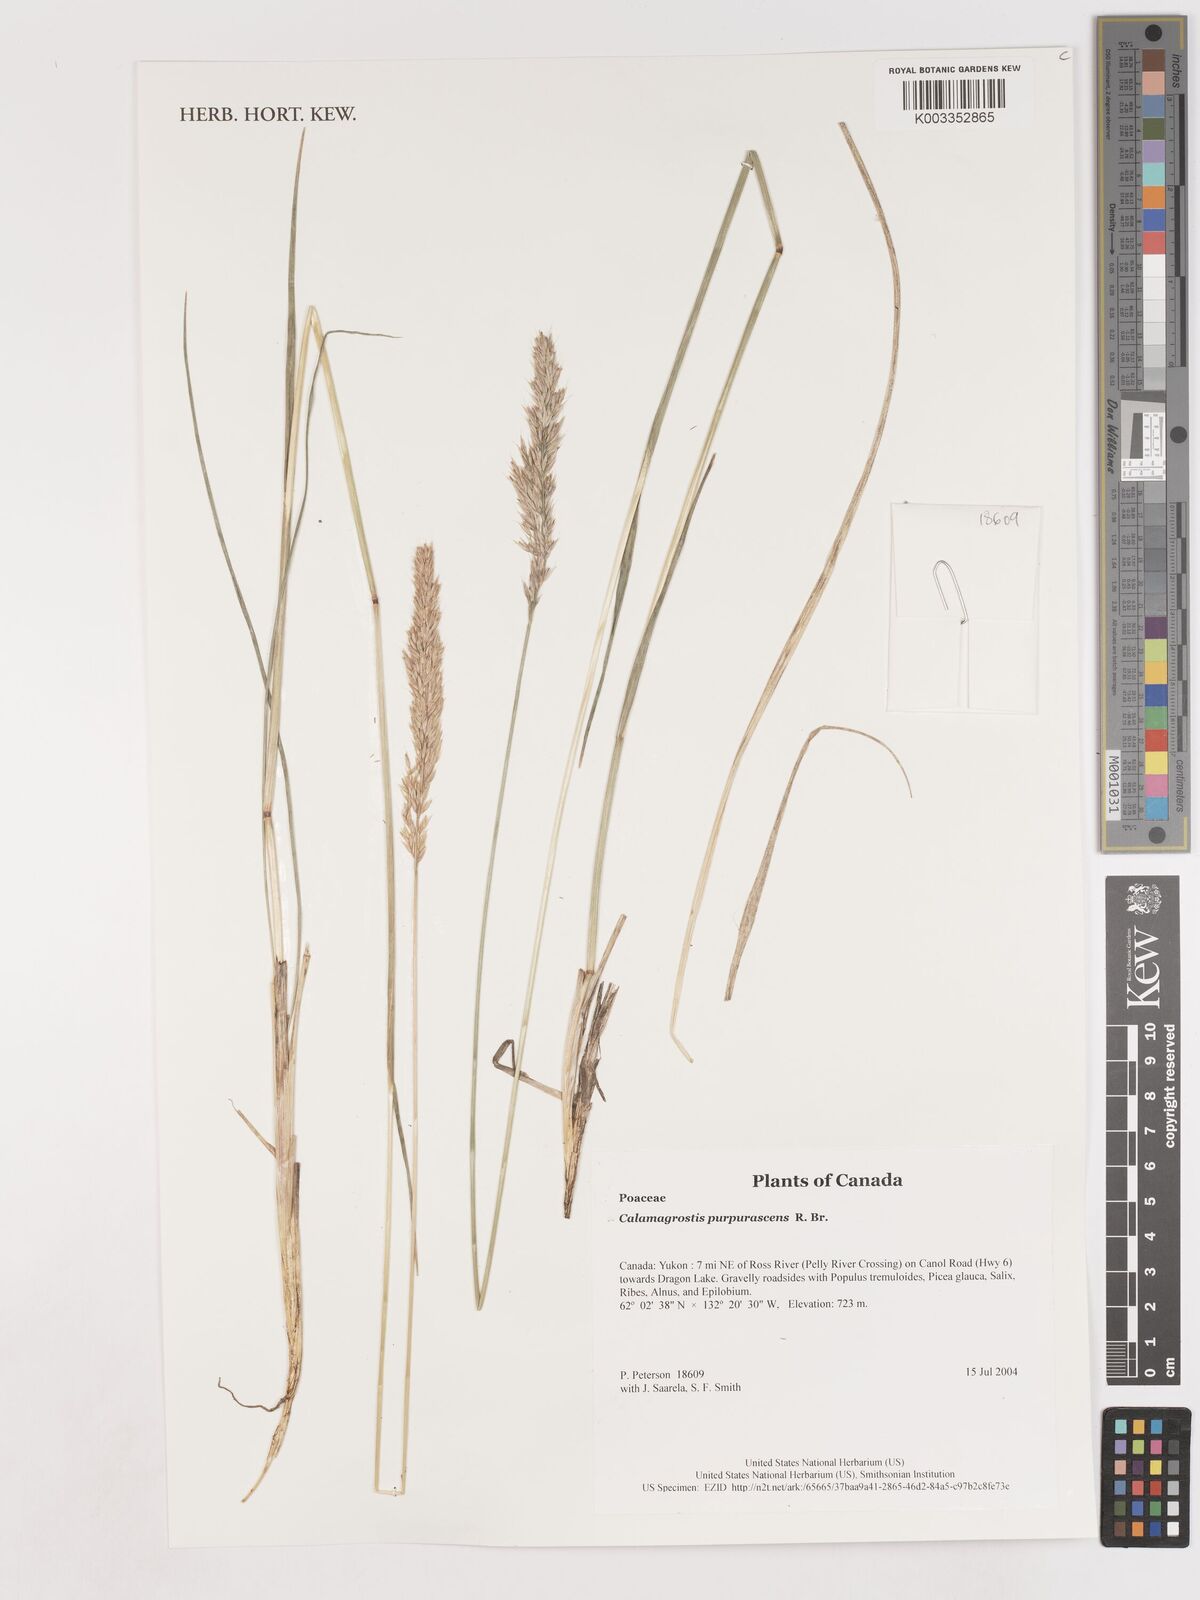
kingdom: Plantae
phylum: Tracheophyta
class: Liliopsida
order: Poales
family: Poaceae
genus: Calamagrostis
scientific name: Calamagrostis purpurascens
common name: Purple reedgrass
